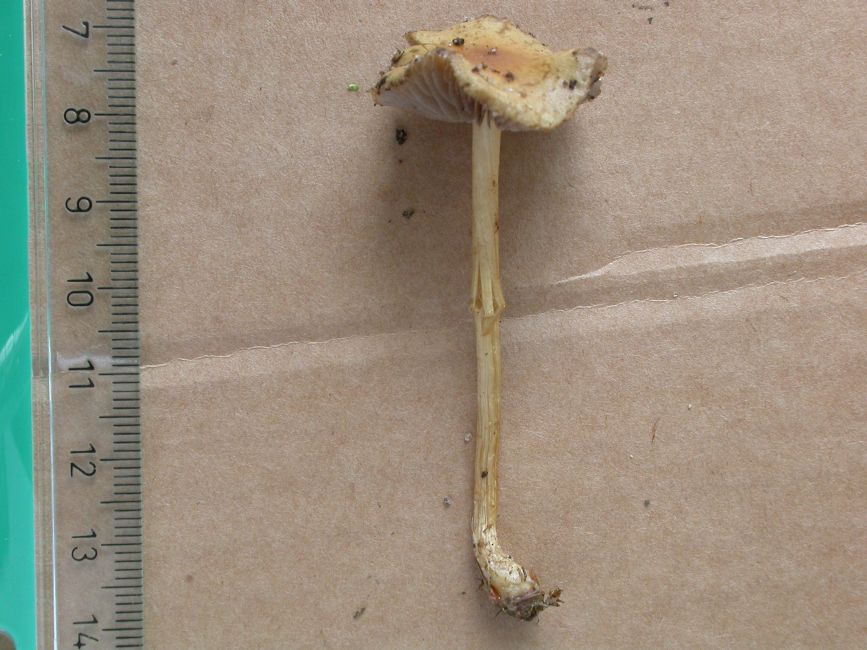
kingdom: Fungi
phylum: Basidiomycota
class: Agaricomycetes
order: Agaricales
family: Strophariaceae
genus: Agrocybe
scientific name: Agrocybe pediades
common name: almindelig agerhat
